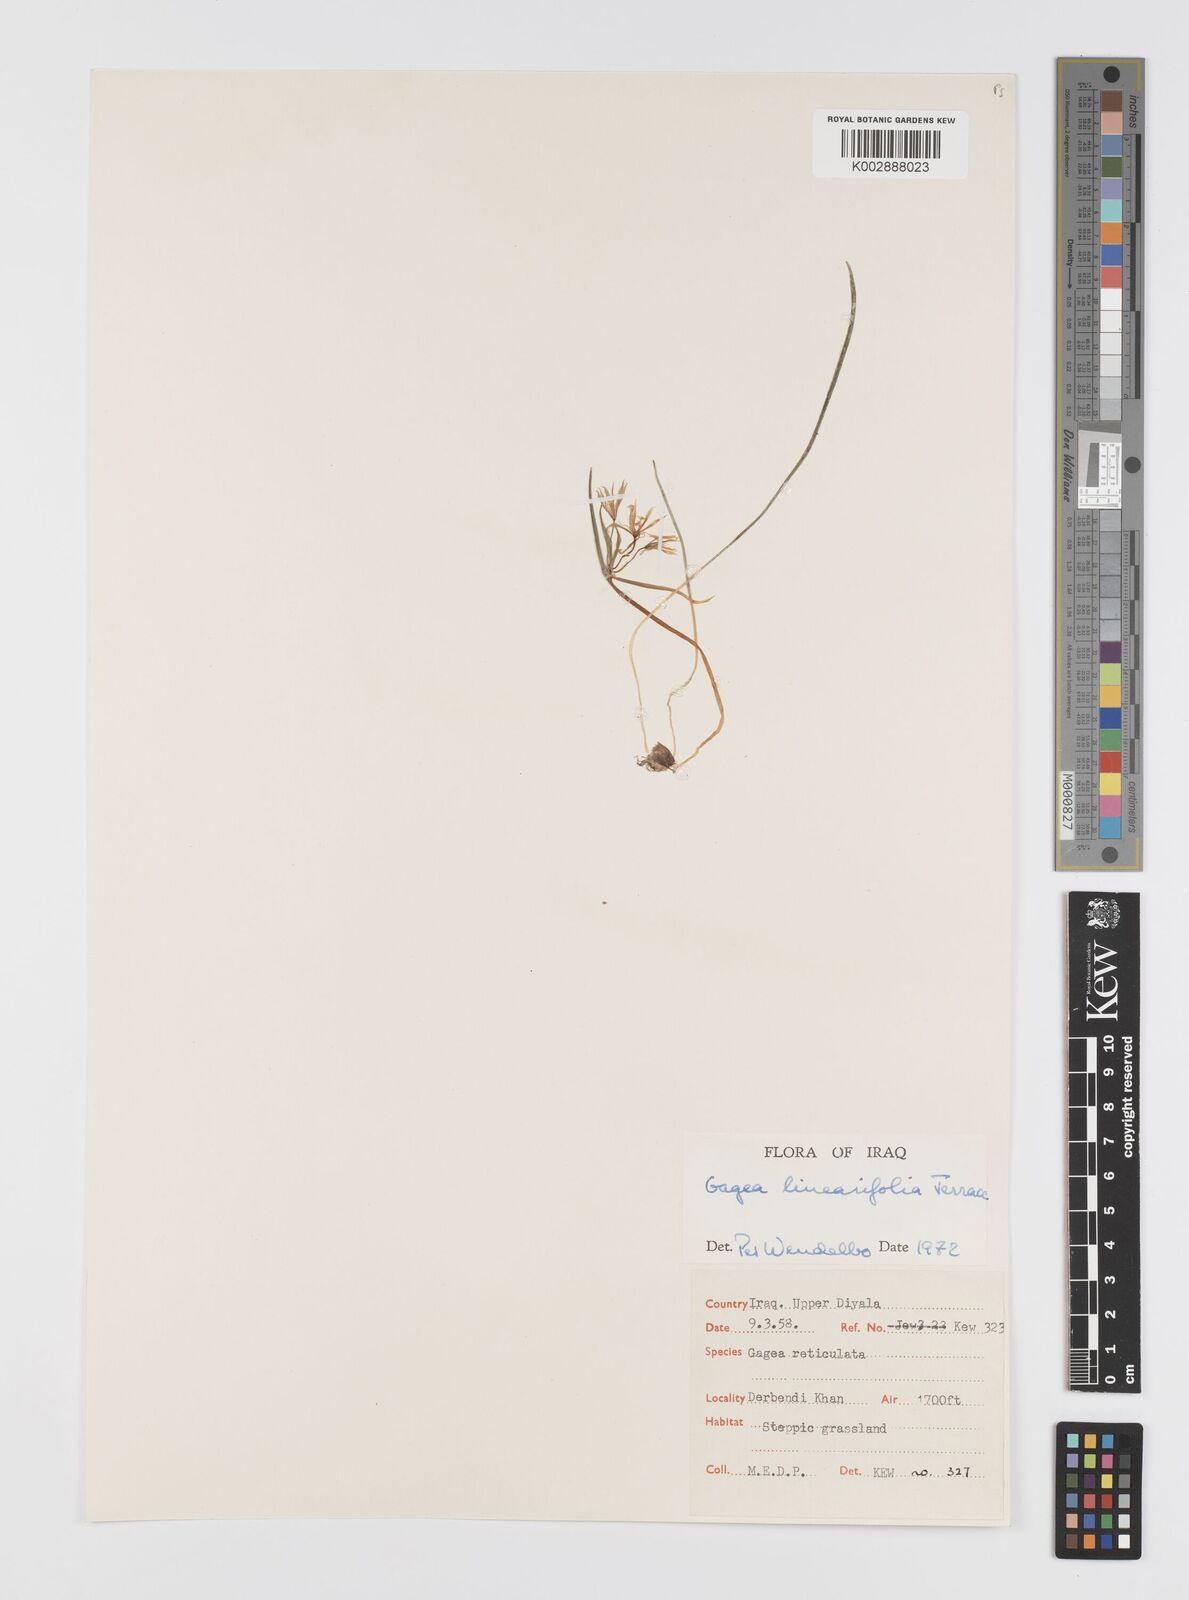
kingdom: Plantae
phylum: Tracheophyta
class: Liliopsida
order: Liliales
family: Liliaceae
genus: Gagea
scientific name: Gagea luteoides
